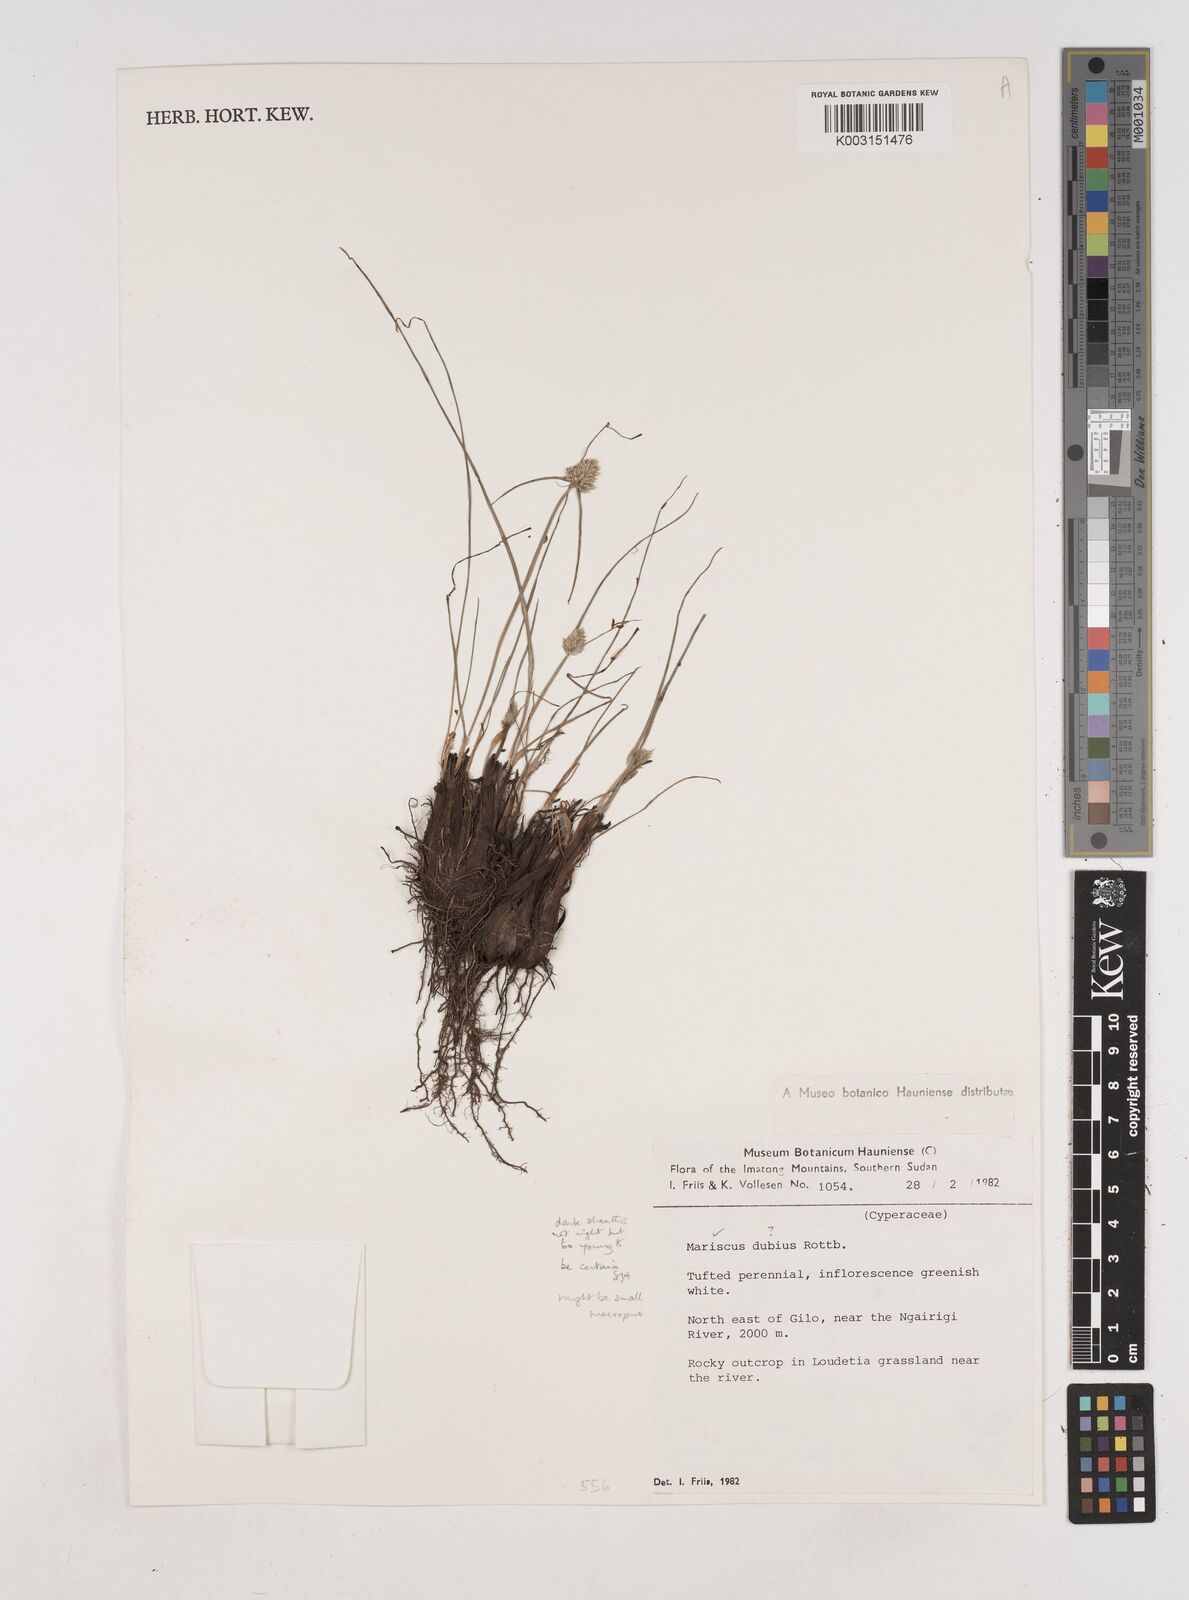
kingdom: Plantae
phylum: Tracheophyta
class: Liliopsida
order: Poales
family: Cyperaceae
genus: Cyperus
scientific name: Cyperus mollipes
